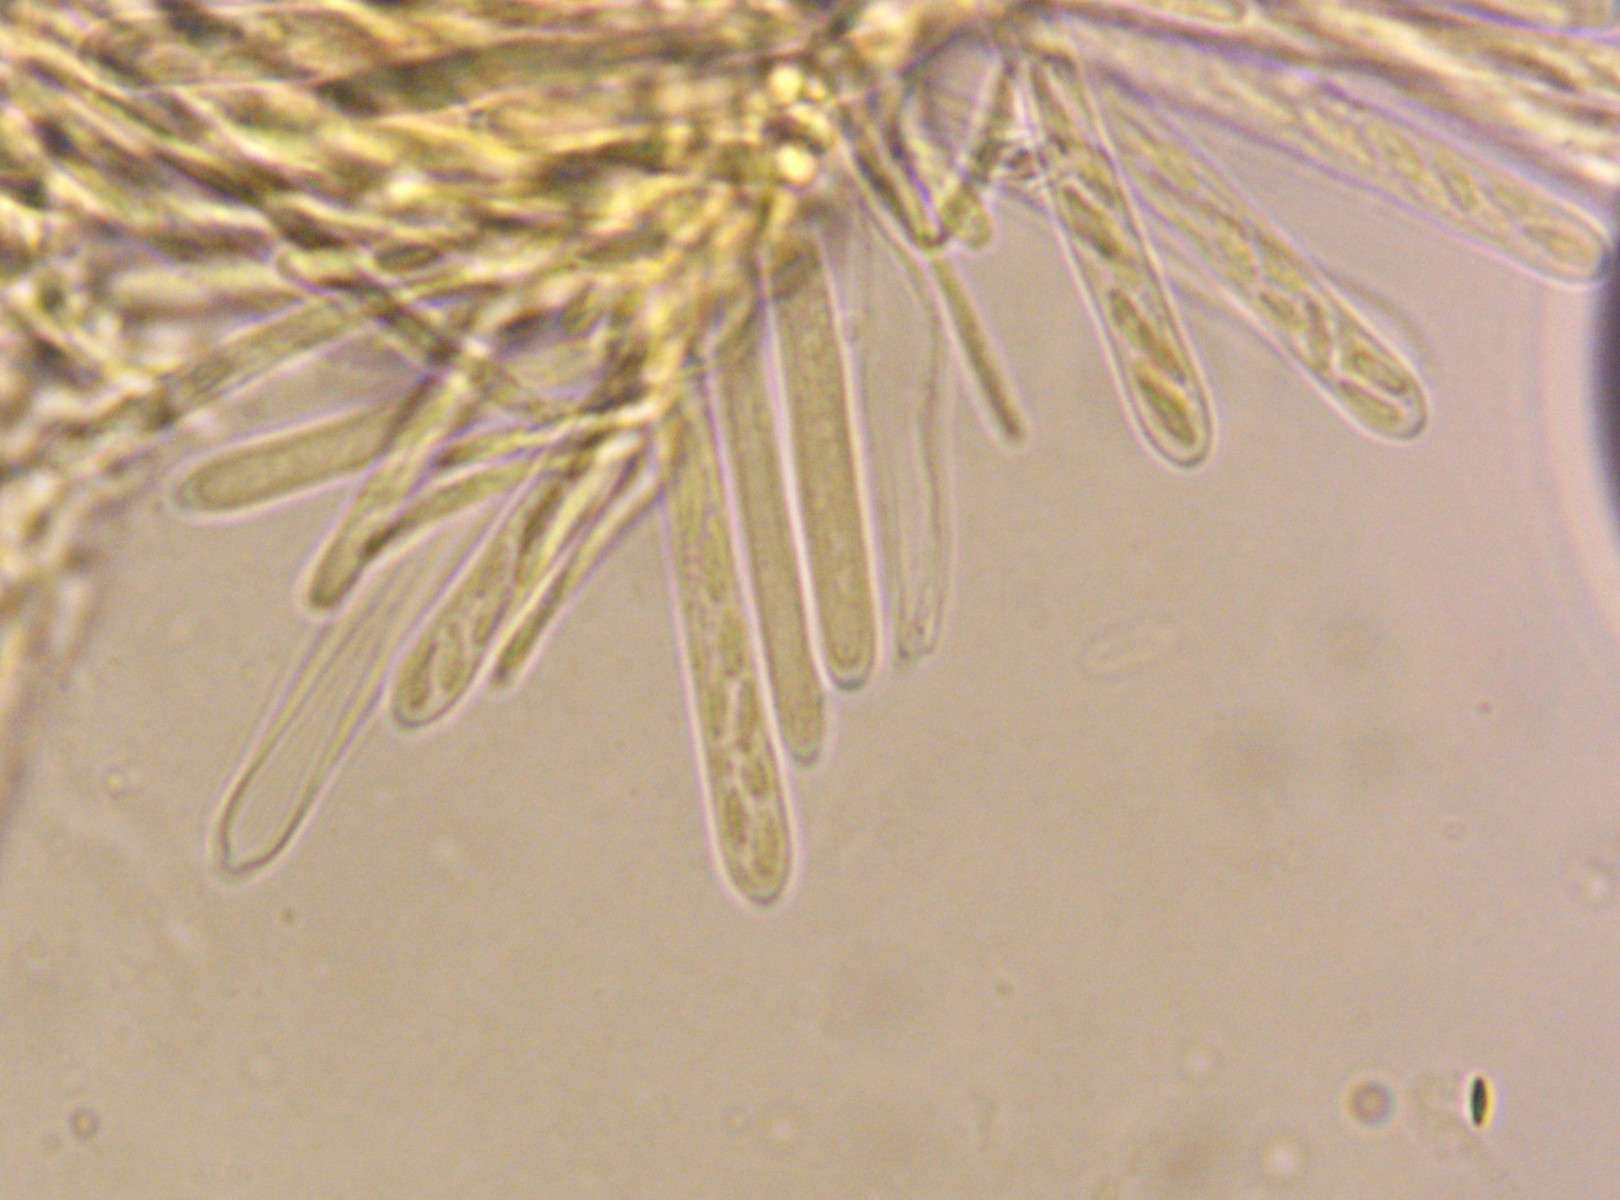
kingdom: Fungi
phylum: Ascomycota
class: Leotiomycetes
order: Helotiales
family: Lachnaceae
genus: Lachnum
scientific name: Lachnum impudicum
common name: vinter-frynseskive
